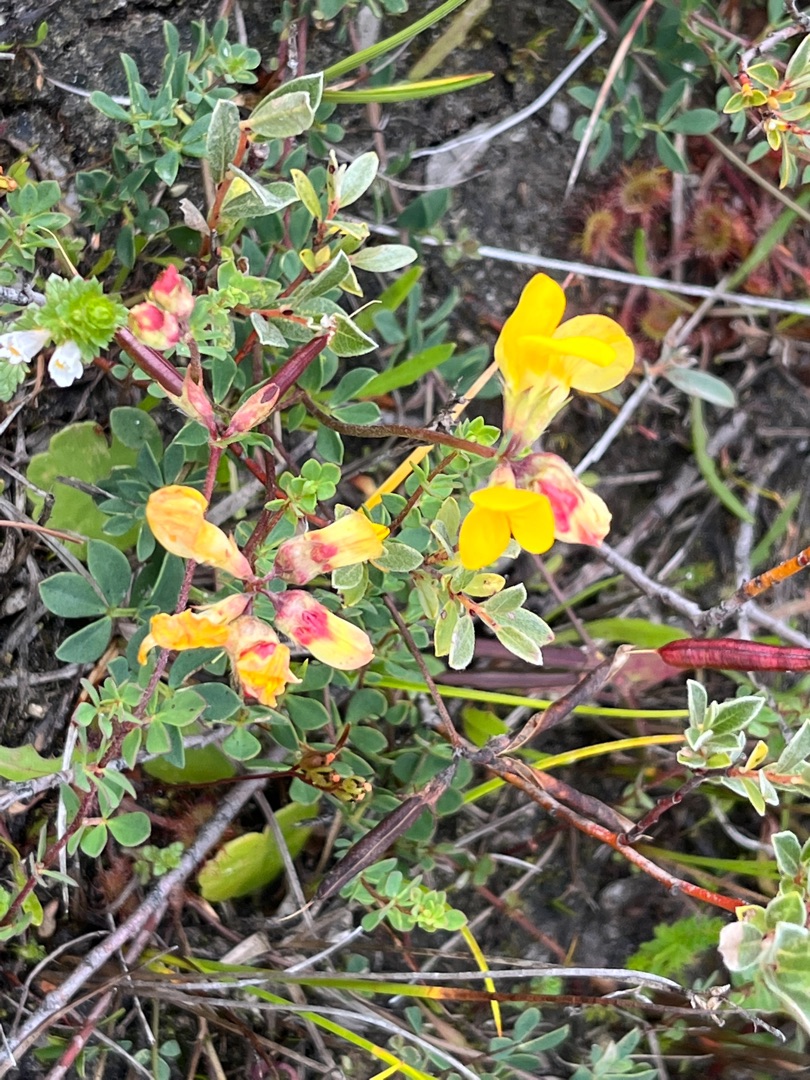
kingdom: Plantae
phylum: Tracheophyta
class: Magnoliopsida
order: Fabales
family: Fabaceae
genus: Lotus
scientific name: Lotus corniculatus
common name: Almindelig kællingetand
